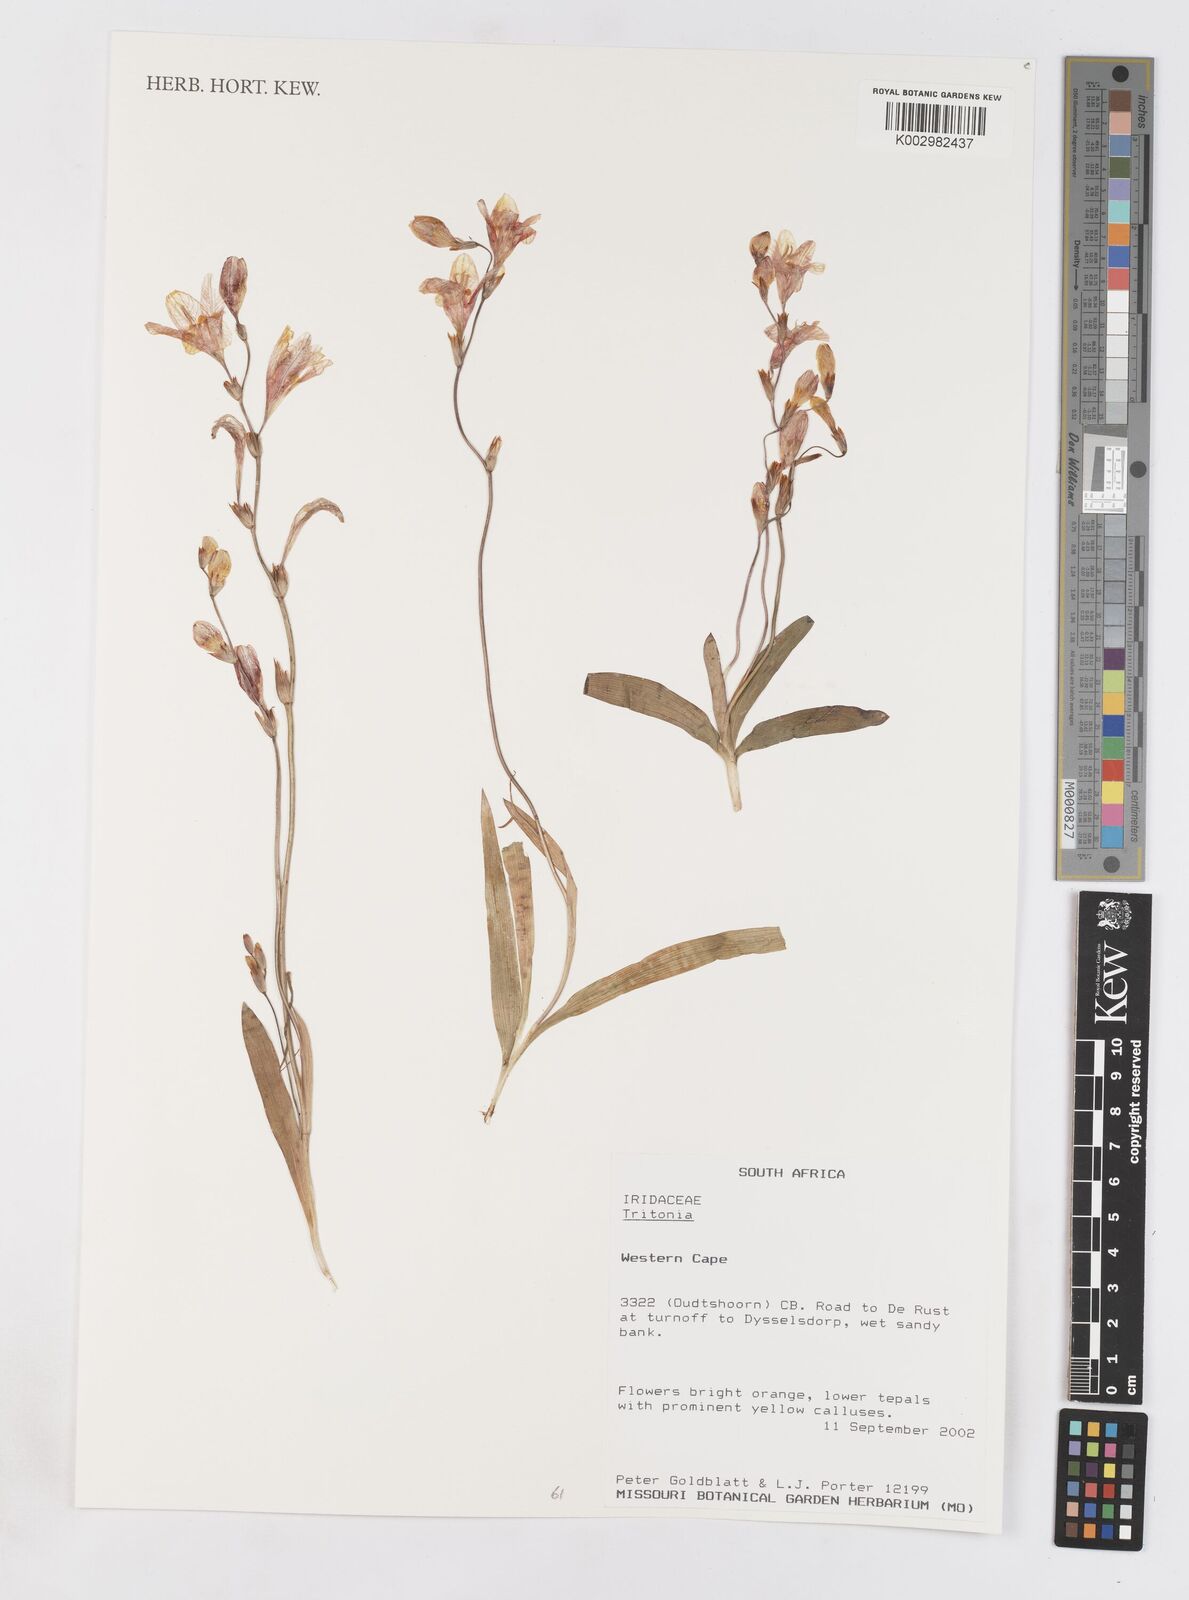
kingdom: Plantae
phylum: Tracheophyta
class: Liliopsida
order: Asparagales
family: Iridaceae
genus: Tritonia
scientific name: Tritonia
